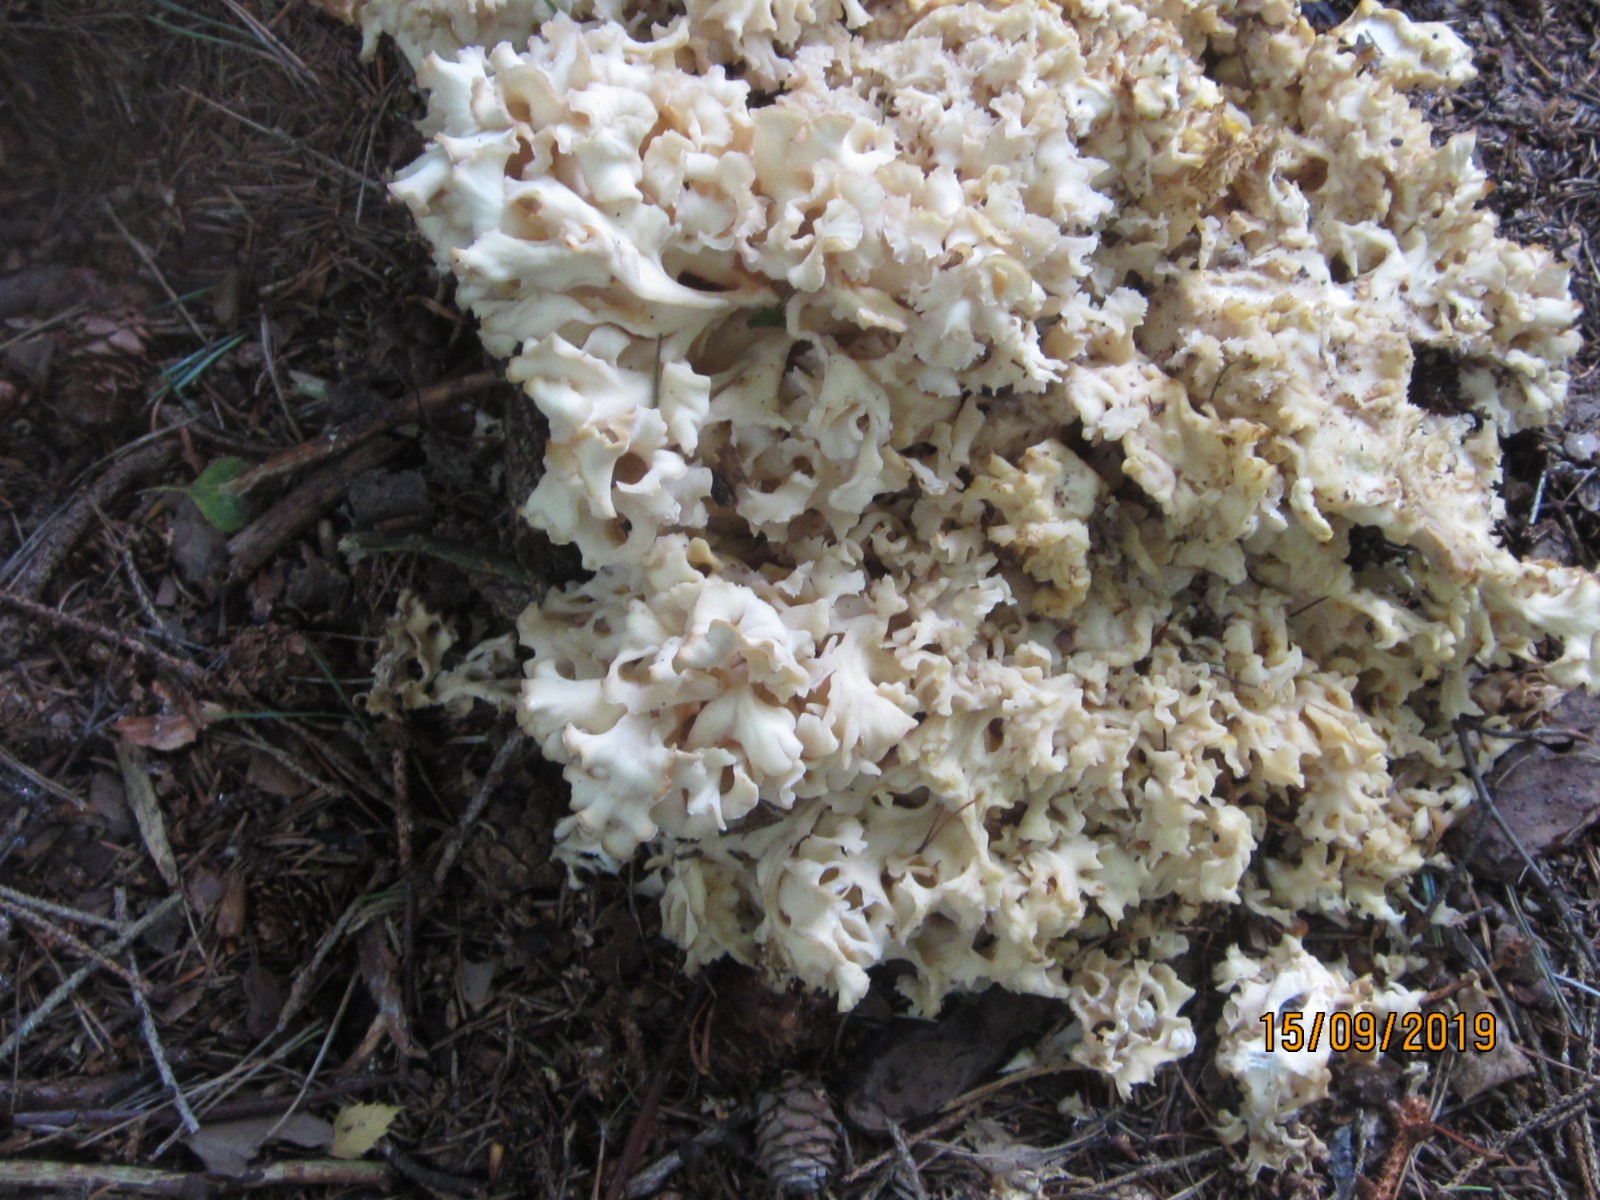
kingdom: Fungi
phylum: Basidiomycota
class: Agaricomycetes
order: Polyporales
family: Sparassidaceae
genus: Sparassis
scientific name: Sparassis crispa
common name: kruset blomkålssvamp
